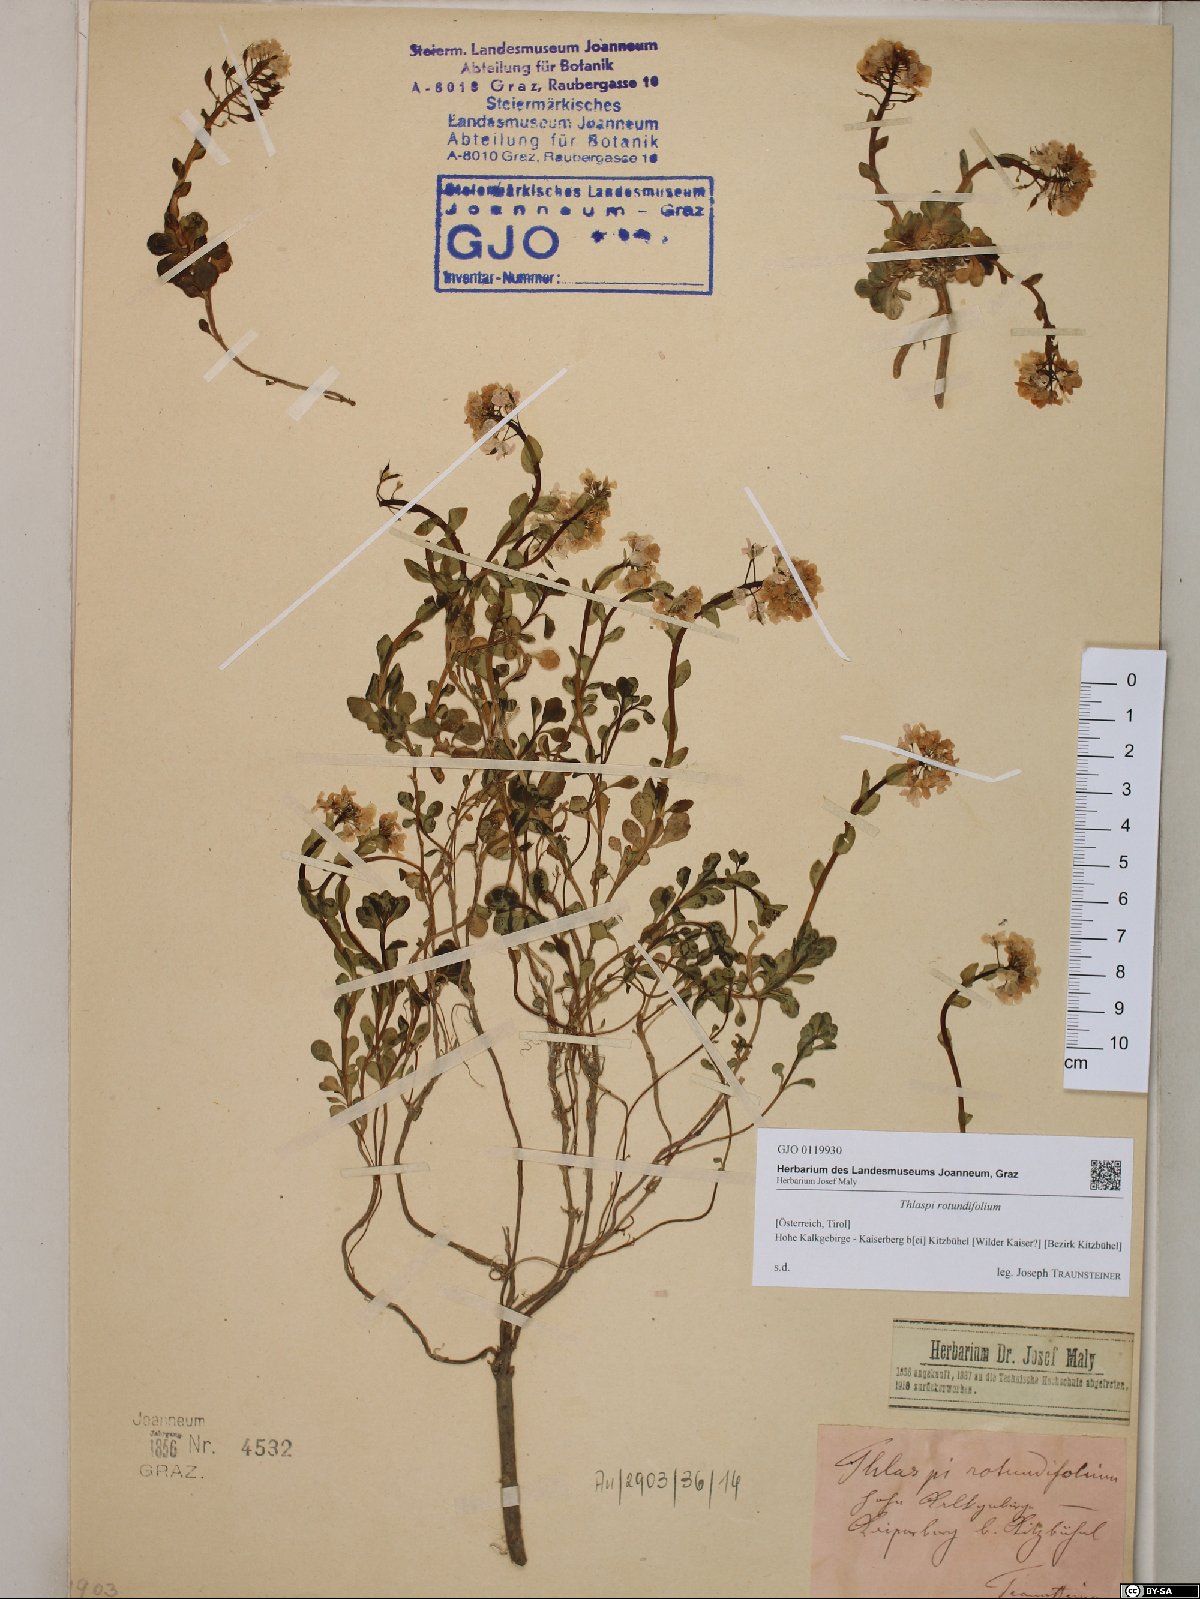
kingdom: Plantae
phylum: Tracheophyta
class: Magnoliopsida
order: Brassicales
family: Brassicaceae
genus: Noccaea
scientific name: Noccaea rotundifolia
